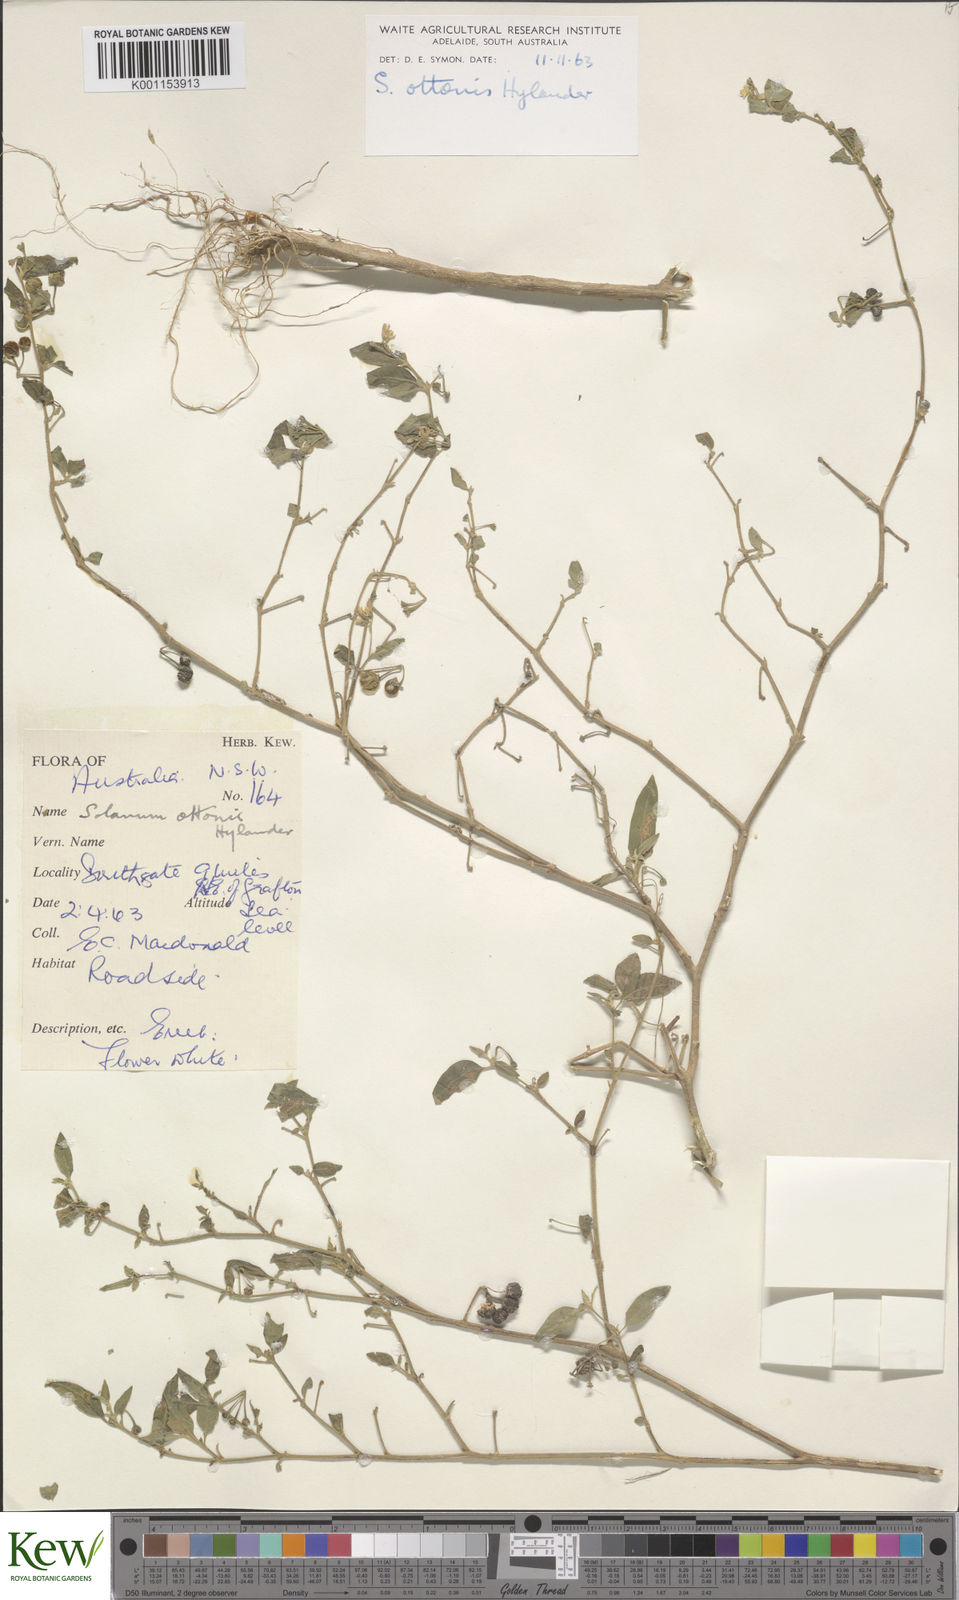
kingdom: Plantae
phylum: Tracheophyta
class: Magnoliopsida
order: Solanales
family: Solanaceae
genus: Solanum
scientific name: Solanum chenopodioides
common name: Tall nightshade
